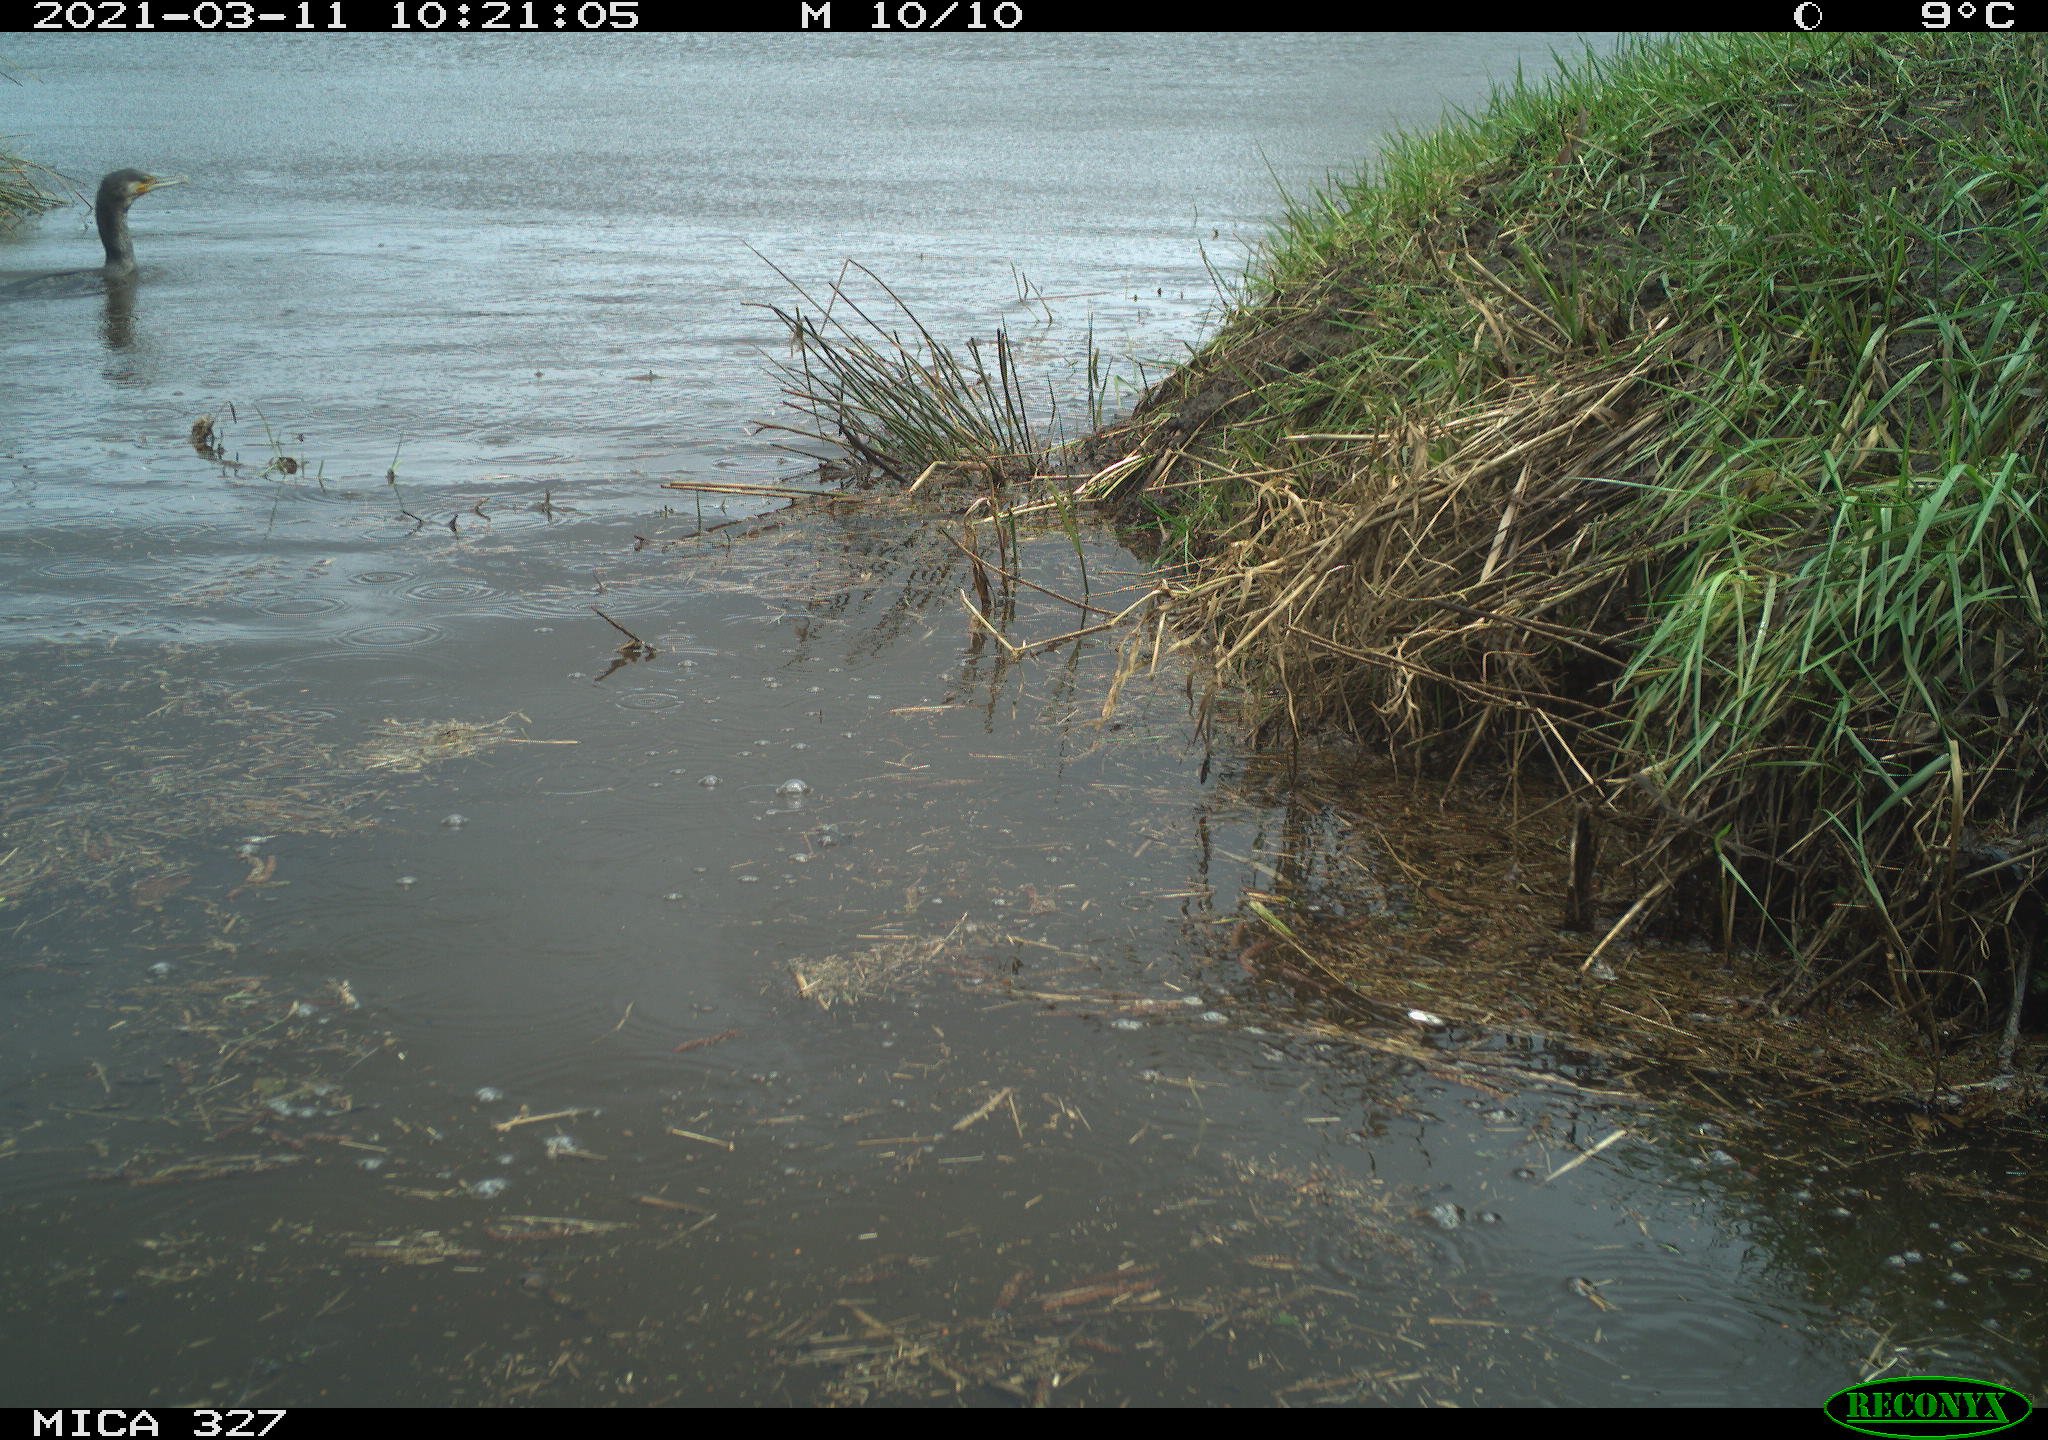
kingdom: Animalia
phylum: Chordata
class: Aves
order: Suliformes
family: Phalacrocoracidae
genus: Phalacrocorax
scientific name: Phalacrocorax carbo
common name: Great cormorant
